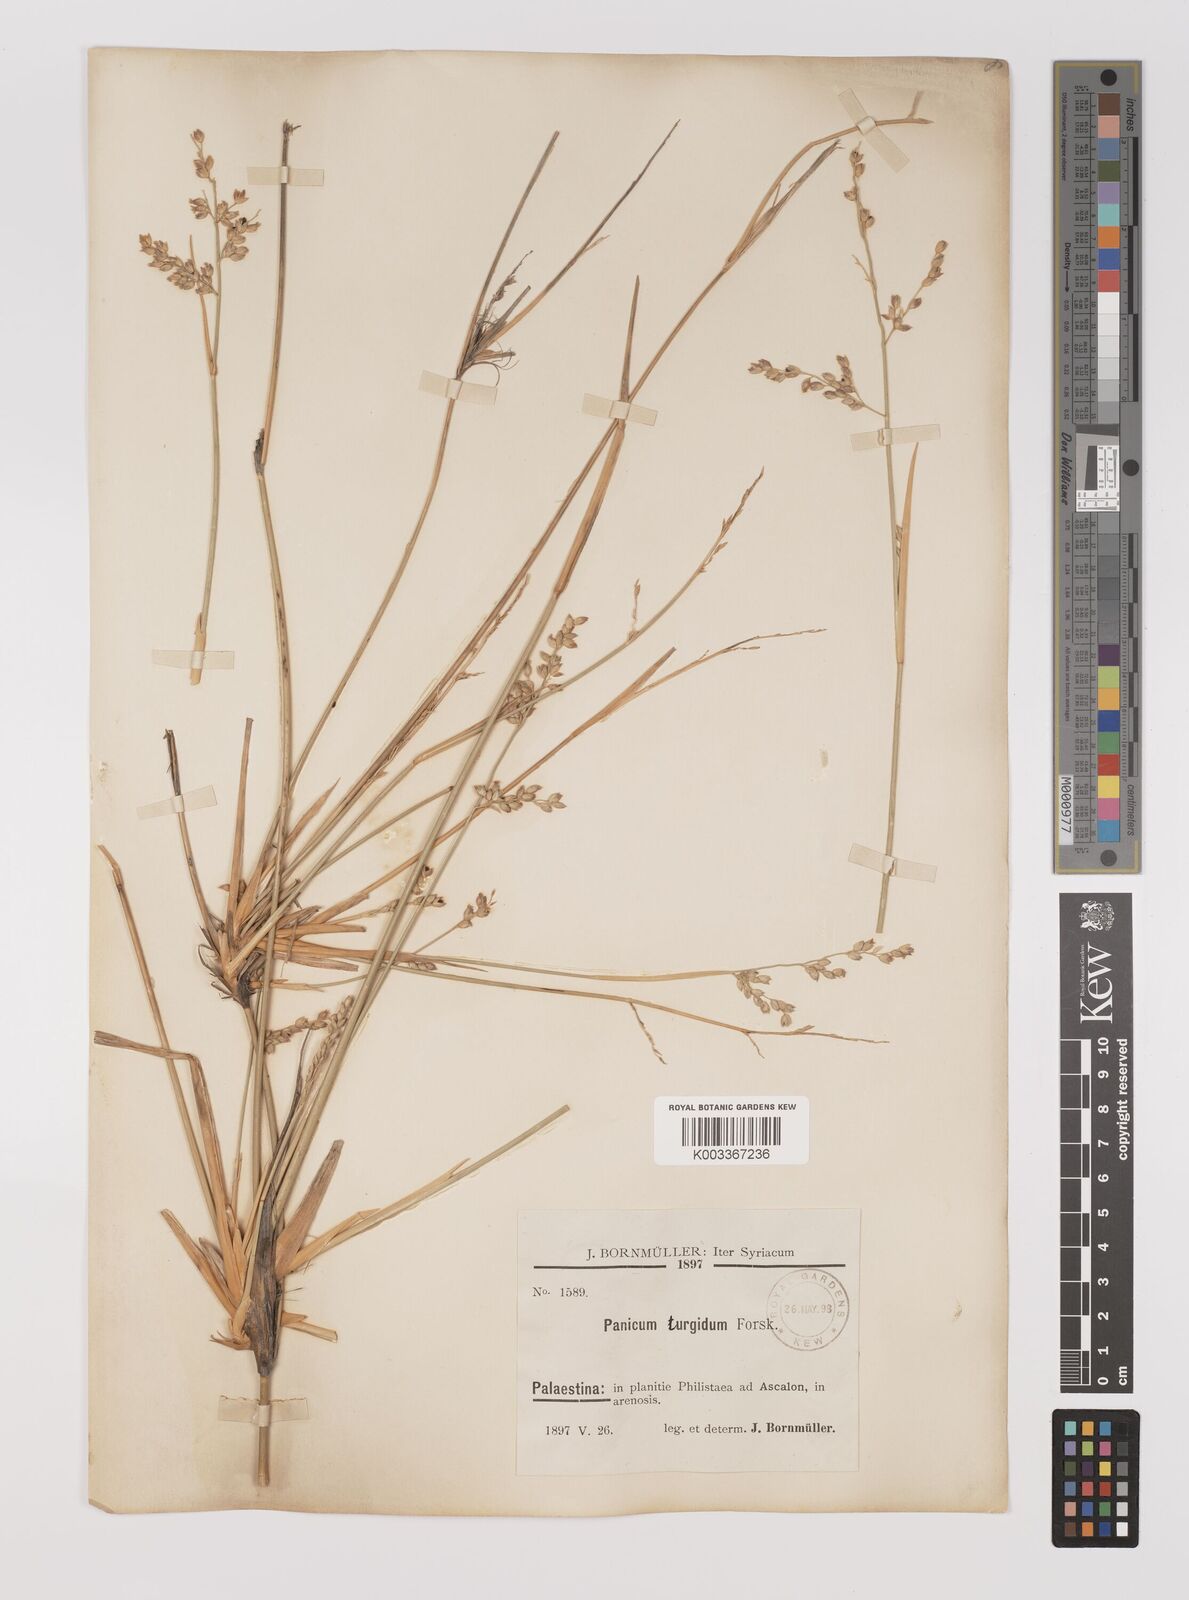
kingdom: Plantae
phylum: Tracheophyta
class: Liliopsida
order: Poales
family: Poaceae
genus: Panicum
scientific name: Panicum turgidum
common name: Desert grass
